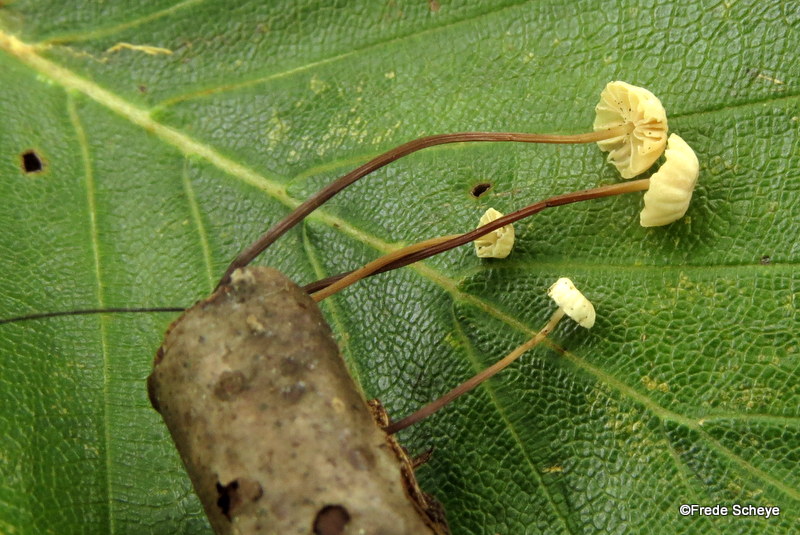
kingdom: Fungi
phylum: Basidiomycota
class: Agaricomycetes
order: Agaricales
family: Marasmiaceae
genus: Marasmius
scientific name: Marasmius rotula
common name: hjul-bruskhat
